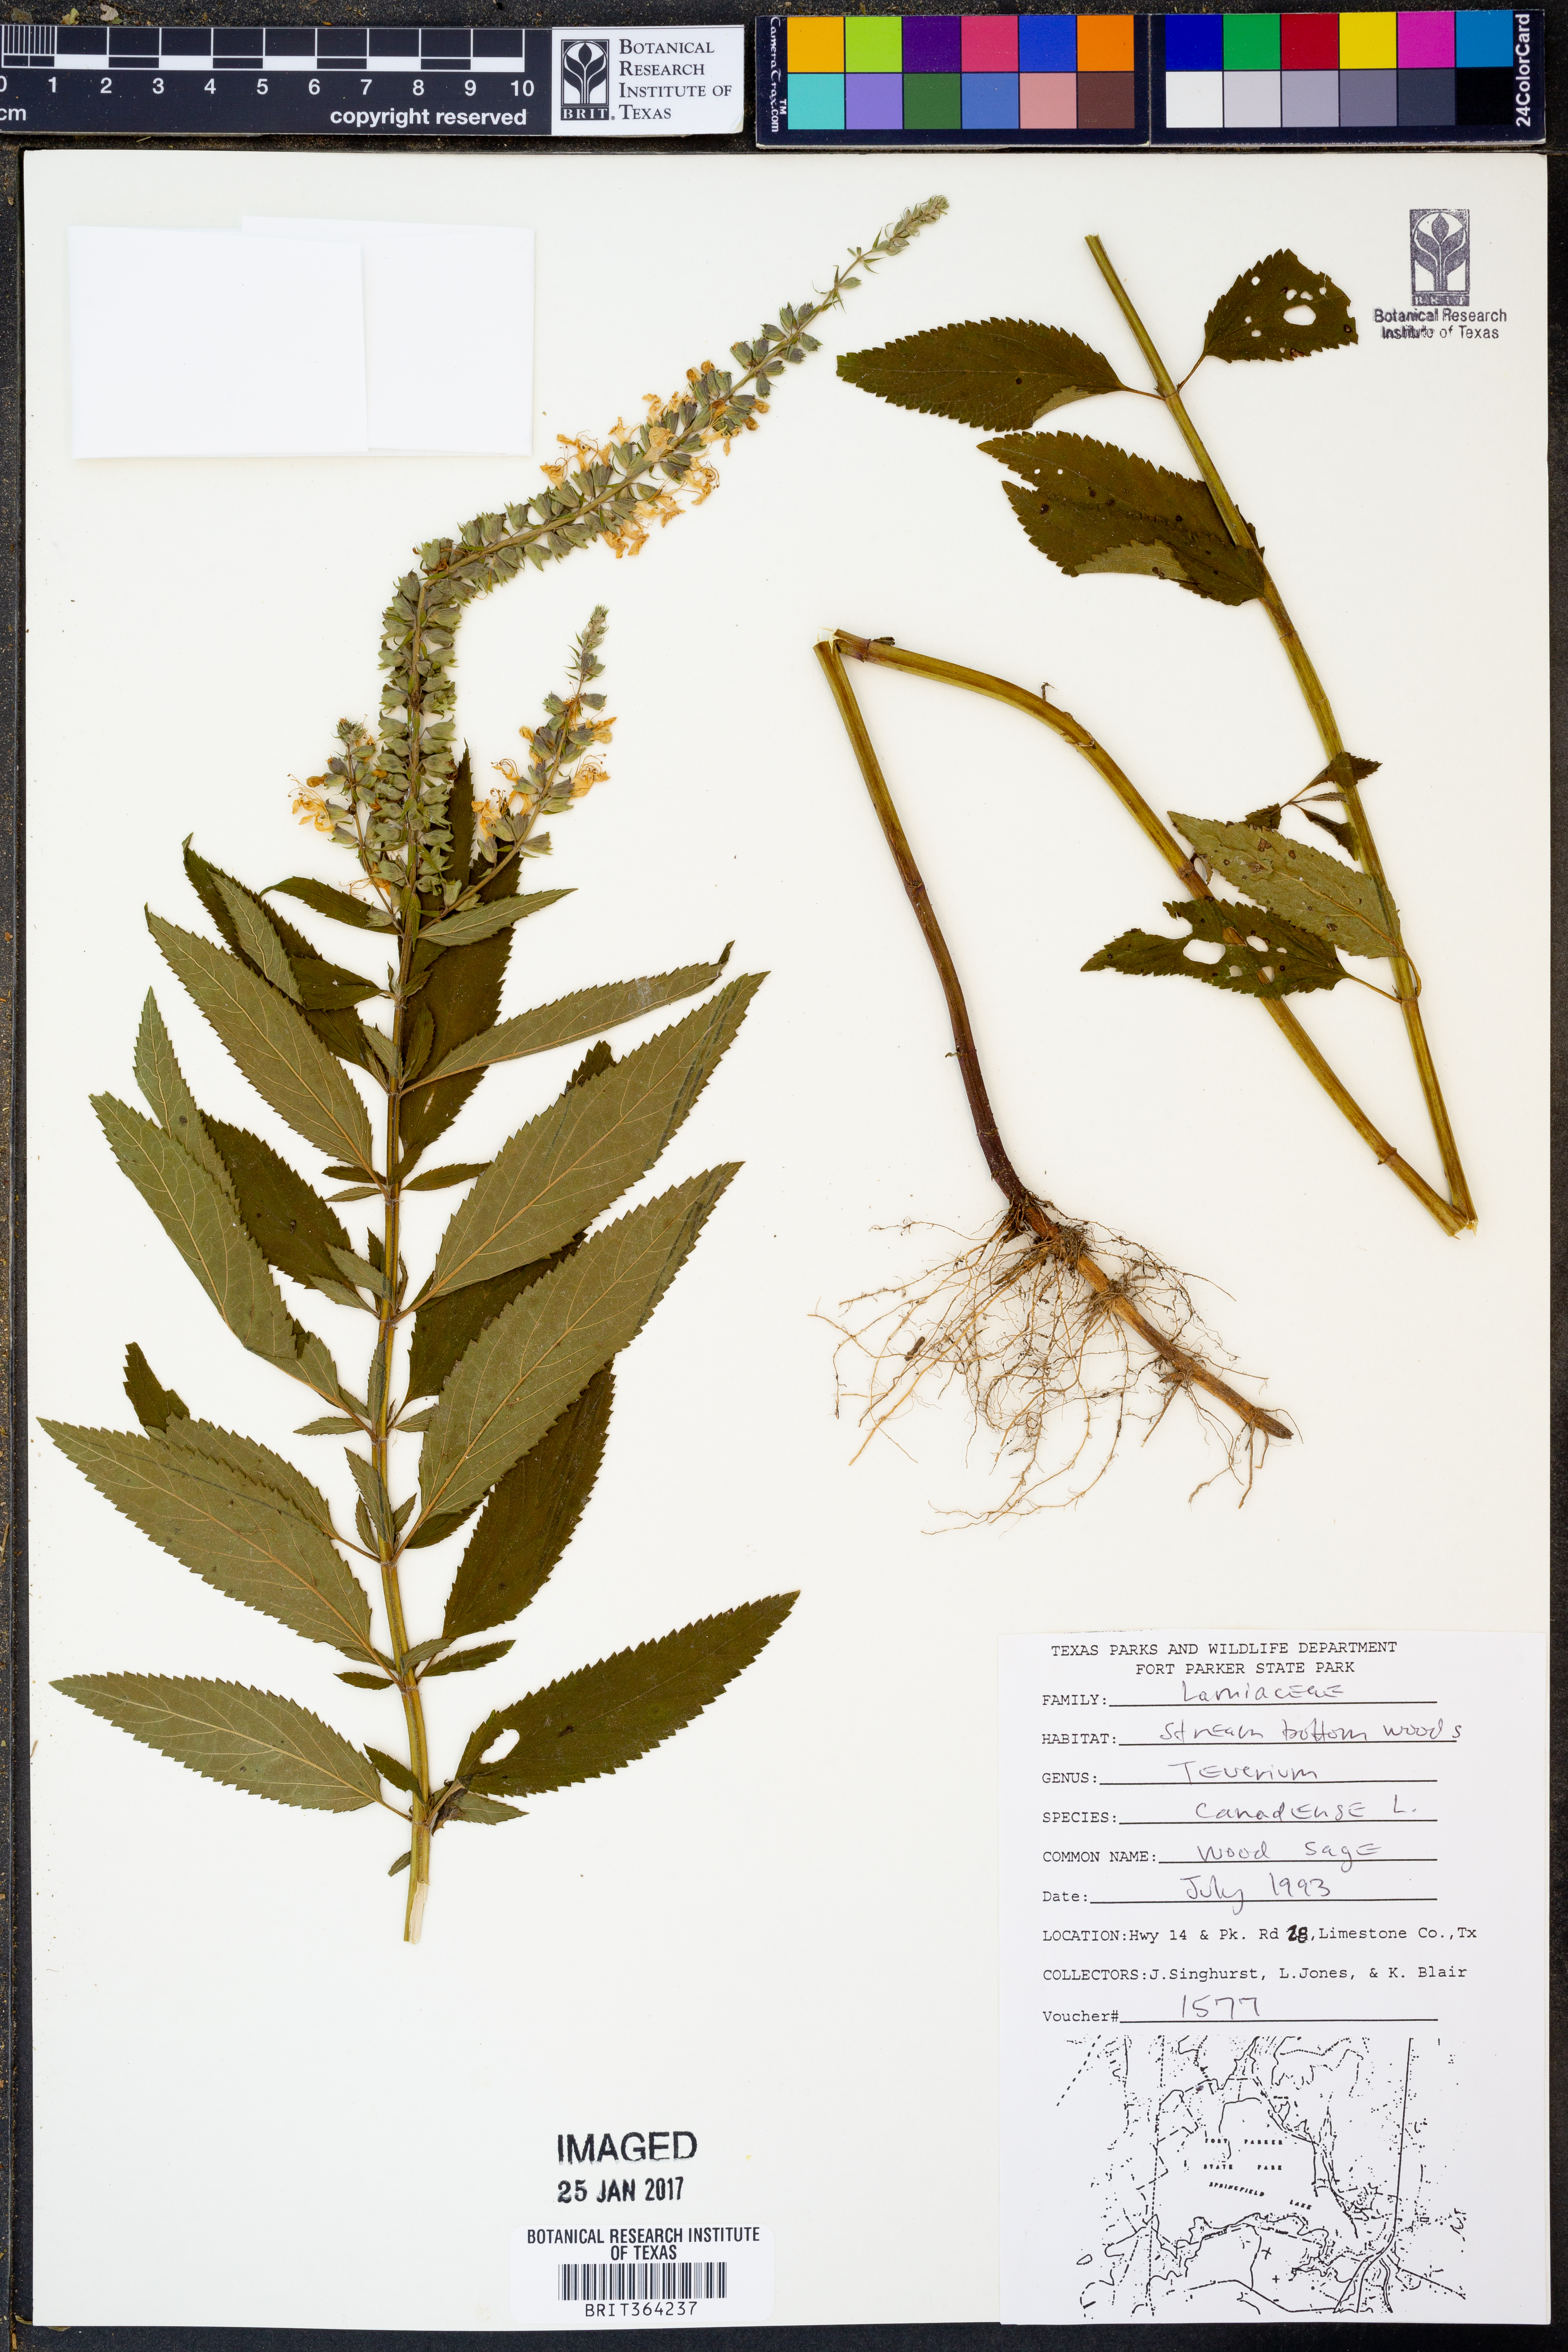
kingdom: Plantae
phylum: Tracheophyta
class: Magnoliopsida
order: Lamiales
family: Lamiaceae
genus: Teucrium
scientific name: Teucrium canadense
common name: American germander
